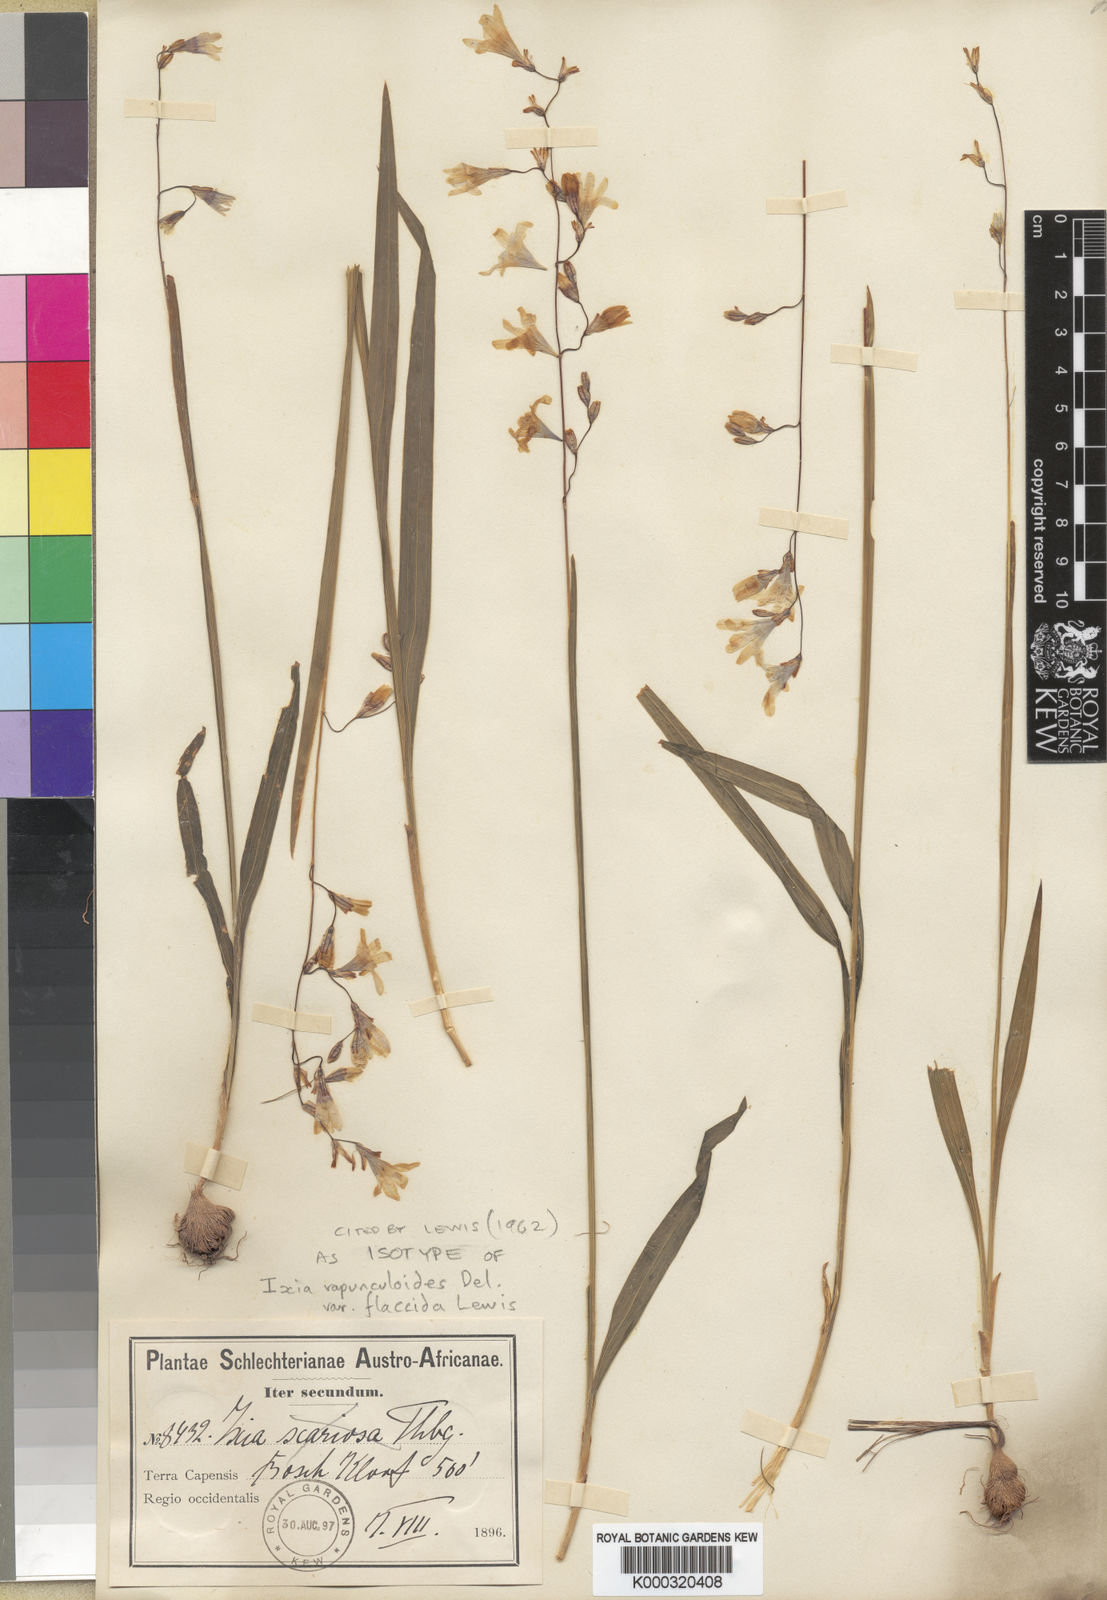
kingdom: Plantae
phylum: Tracheophyta
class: Liliopsida
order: Asparagales
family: Iridaceae
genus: Ixia
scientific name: Ixia mollis
